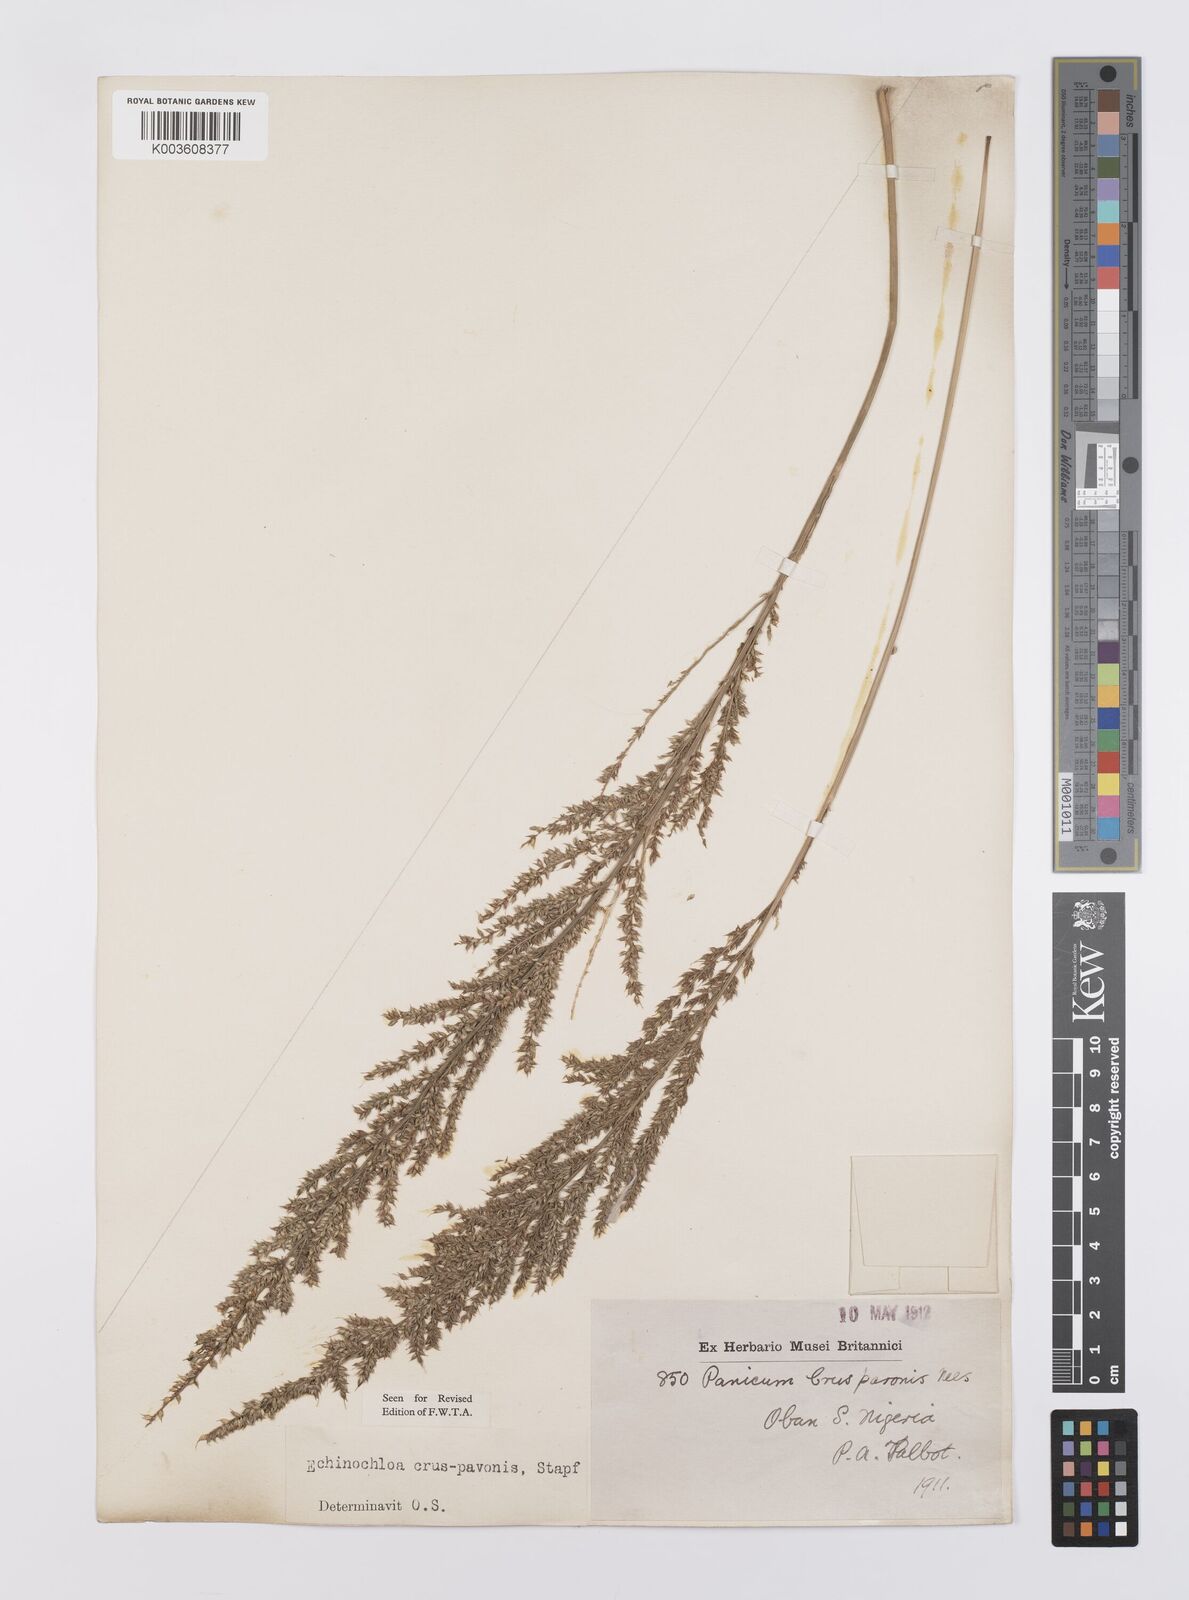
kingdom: Plantae
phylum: Tracheophyta
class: Liliopsida
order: Poales
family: Poaceae
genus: Echinochloa
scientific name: Echinochloa crus-pavonis
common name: Gulf cockspur grass
